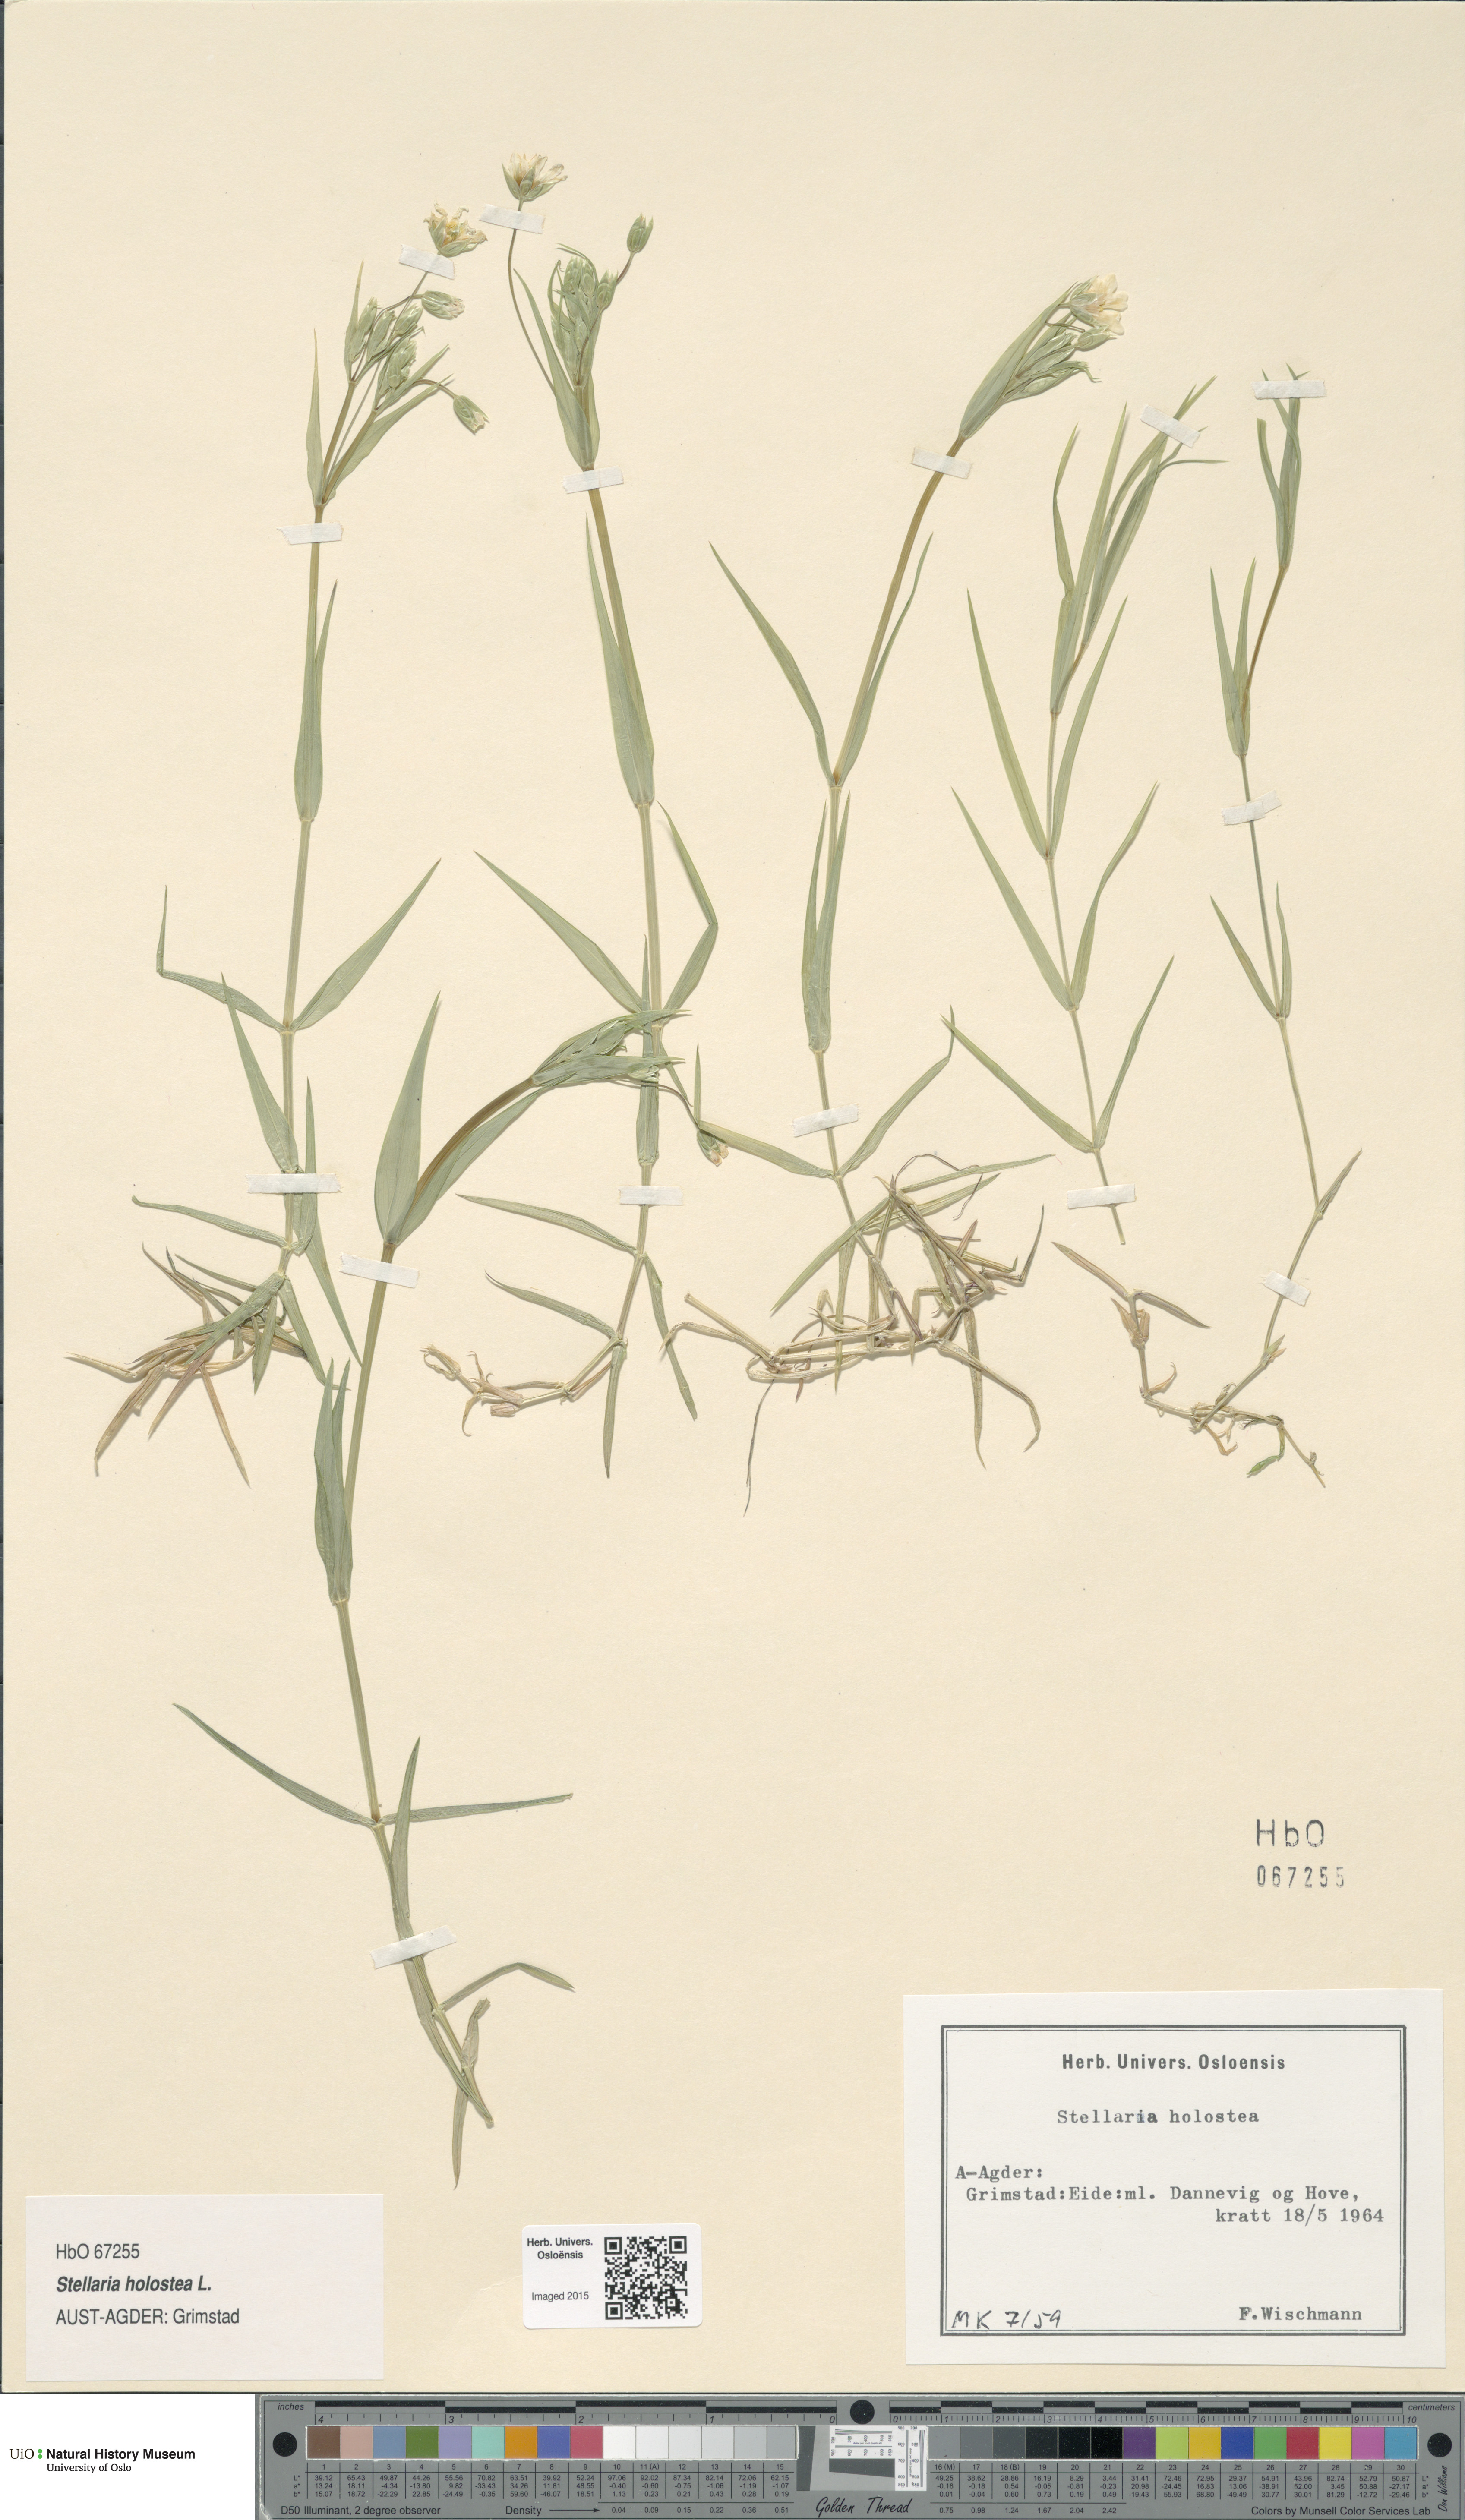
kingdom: Plantae
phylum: Tracheophyta
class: Magnoliopsida
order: Caryophyllales
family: Caryophyllaceae
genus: Rabelera
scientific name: Rabelera holostea
